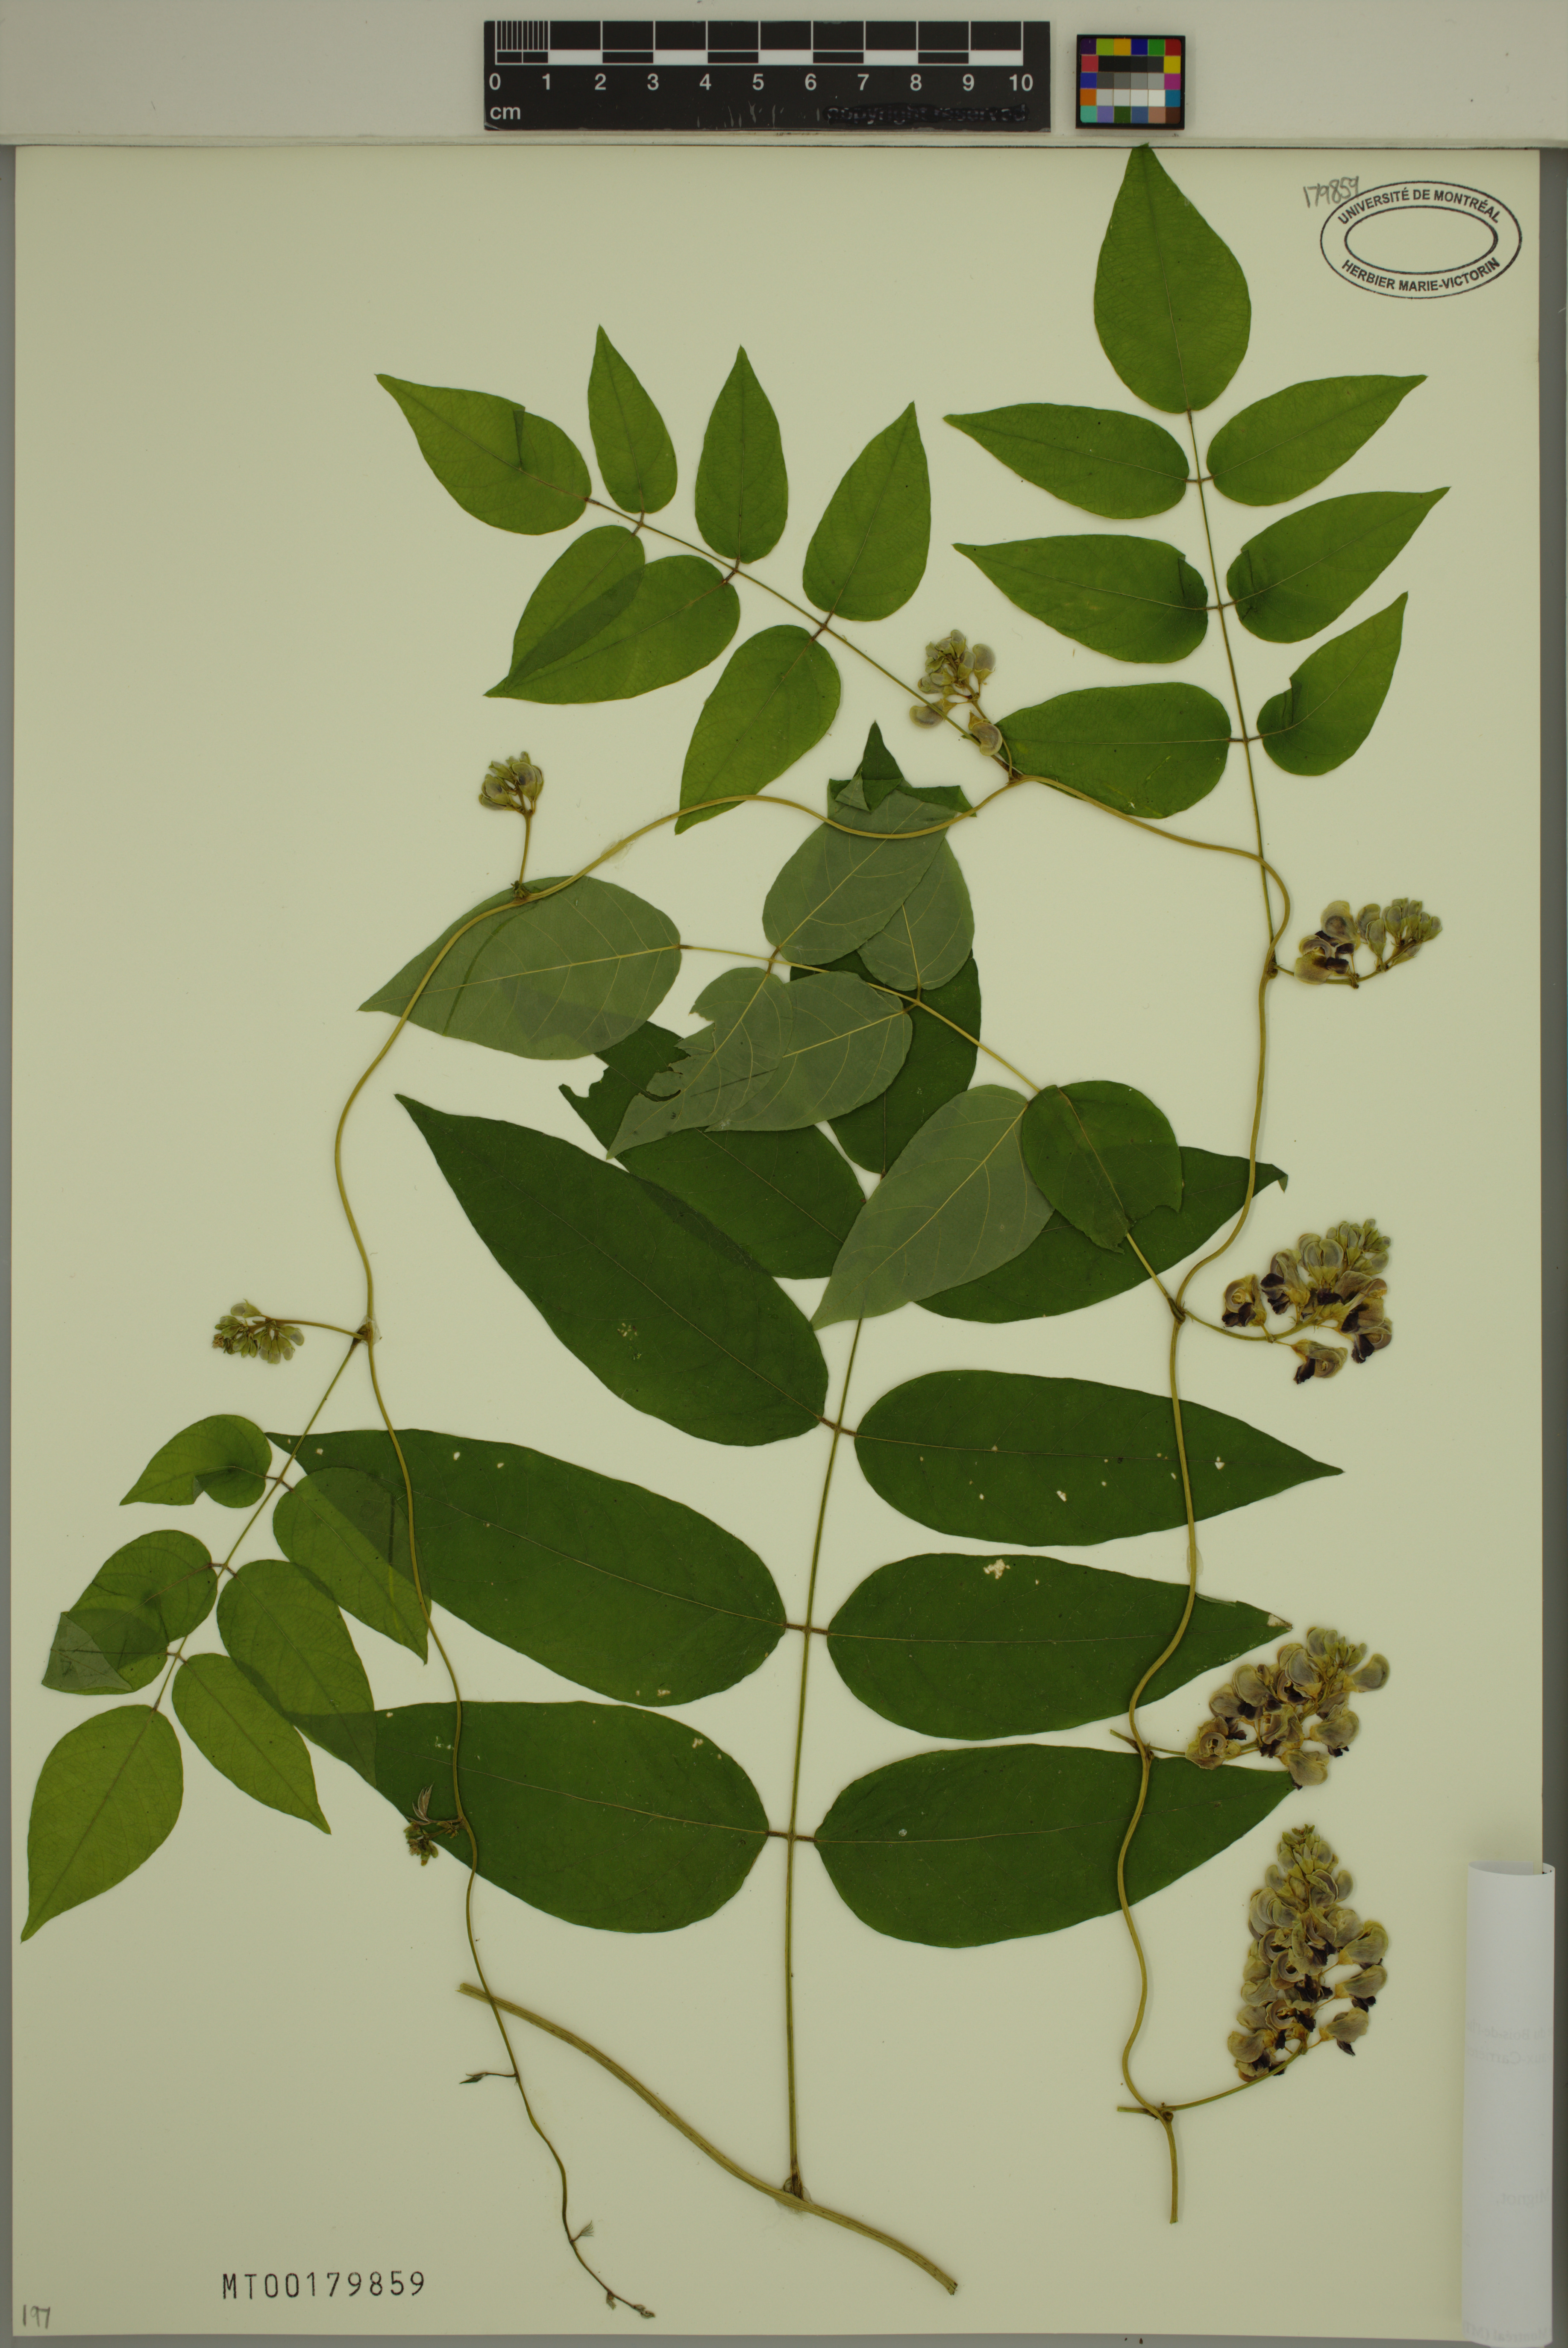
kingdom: Plantae
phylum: Tracheophyta
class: Magnoliopsida
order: Fabales
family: Fabaceae
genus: Apios
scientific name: Apios americana
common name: American potato-bean
